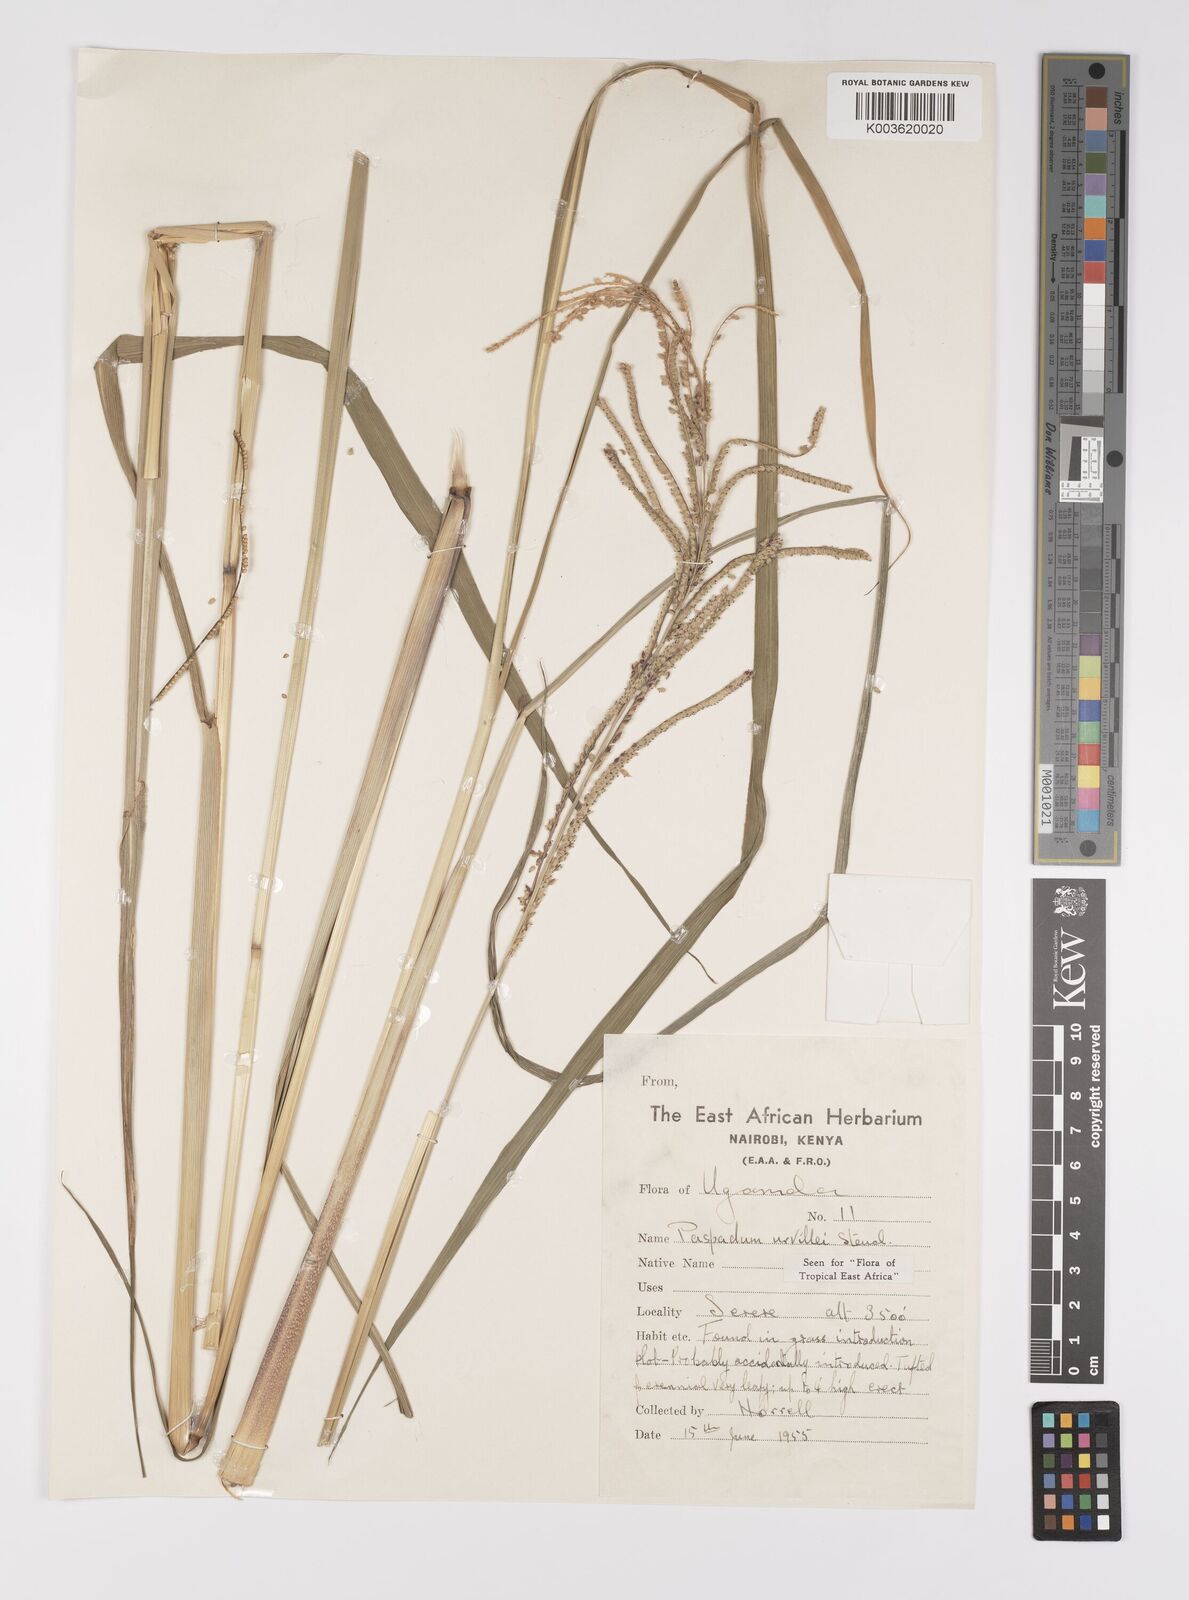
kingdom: Plantae
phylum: Tracheophyta
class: Liliopsida
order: Poales
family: Poaceae
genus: Paspalum
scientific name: Paspalum urvillei
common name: Vasey's grass
